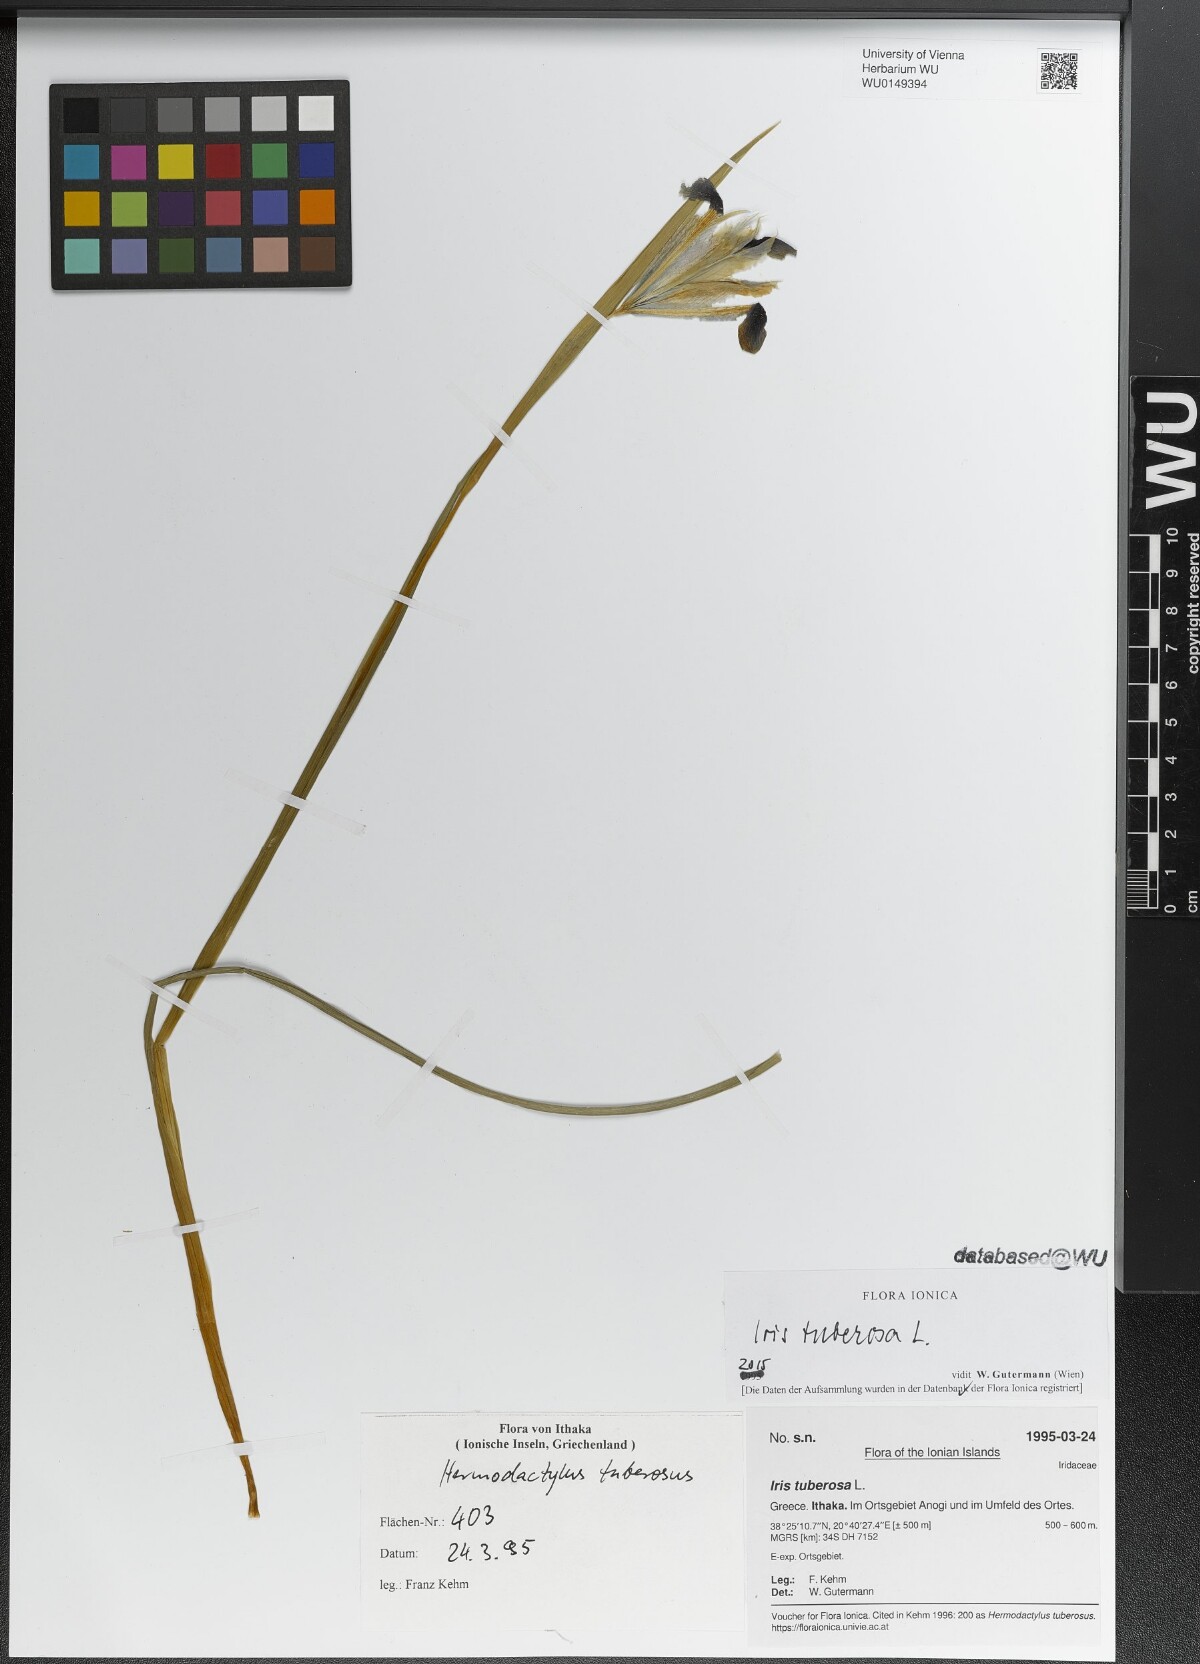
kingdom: Plantae
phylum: Tracheophyta
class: Liliopsida
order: Asparagales
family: Iridaceae
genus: Iris
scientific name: Iris tuberosa
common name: Snake's-head iris
